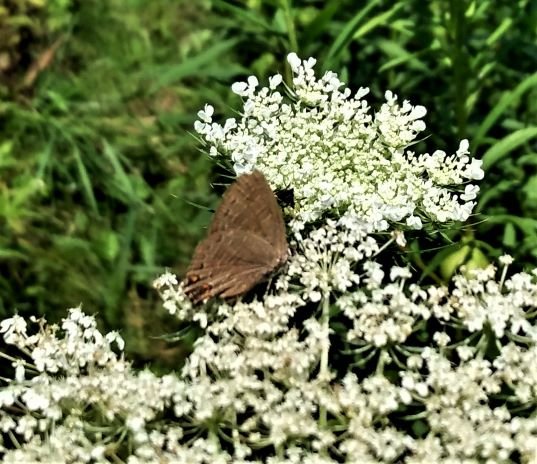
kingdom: Animalia
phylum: Arthropoda
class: Insecta
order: Lepidoptera
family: Lycaenidae
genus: Satyrium
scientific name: Satyrium liparops
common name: Striped Hairstreak
